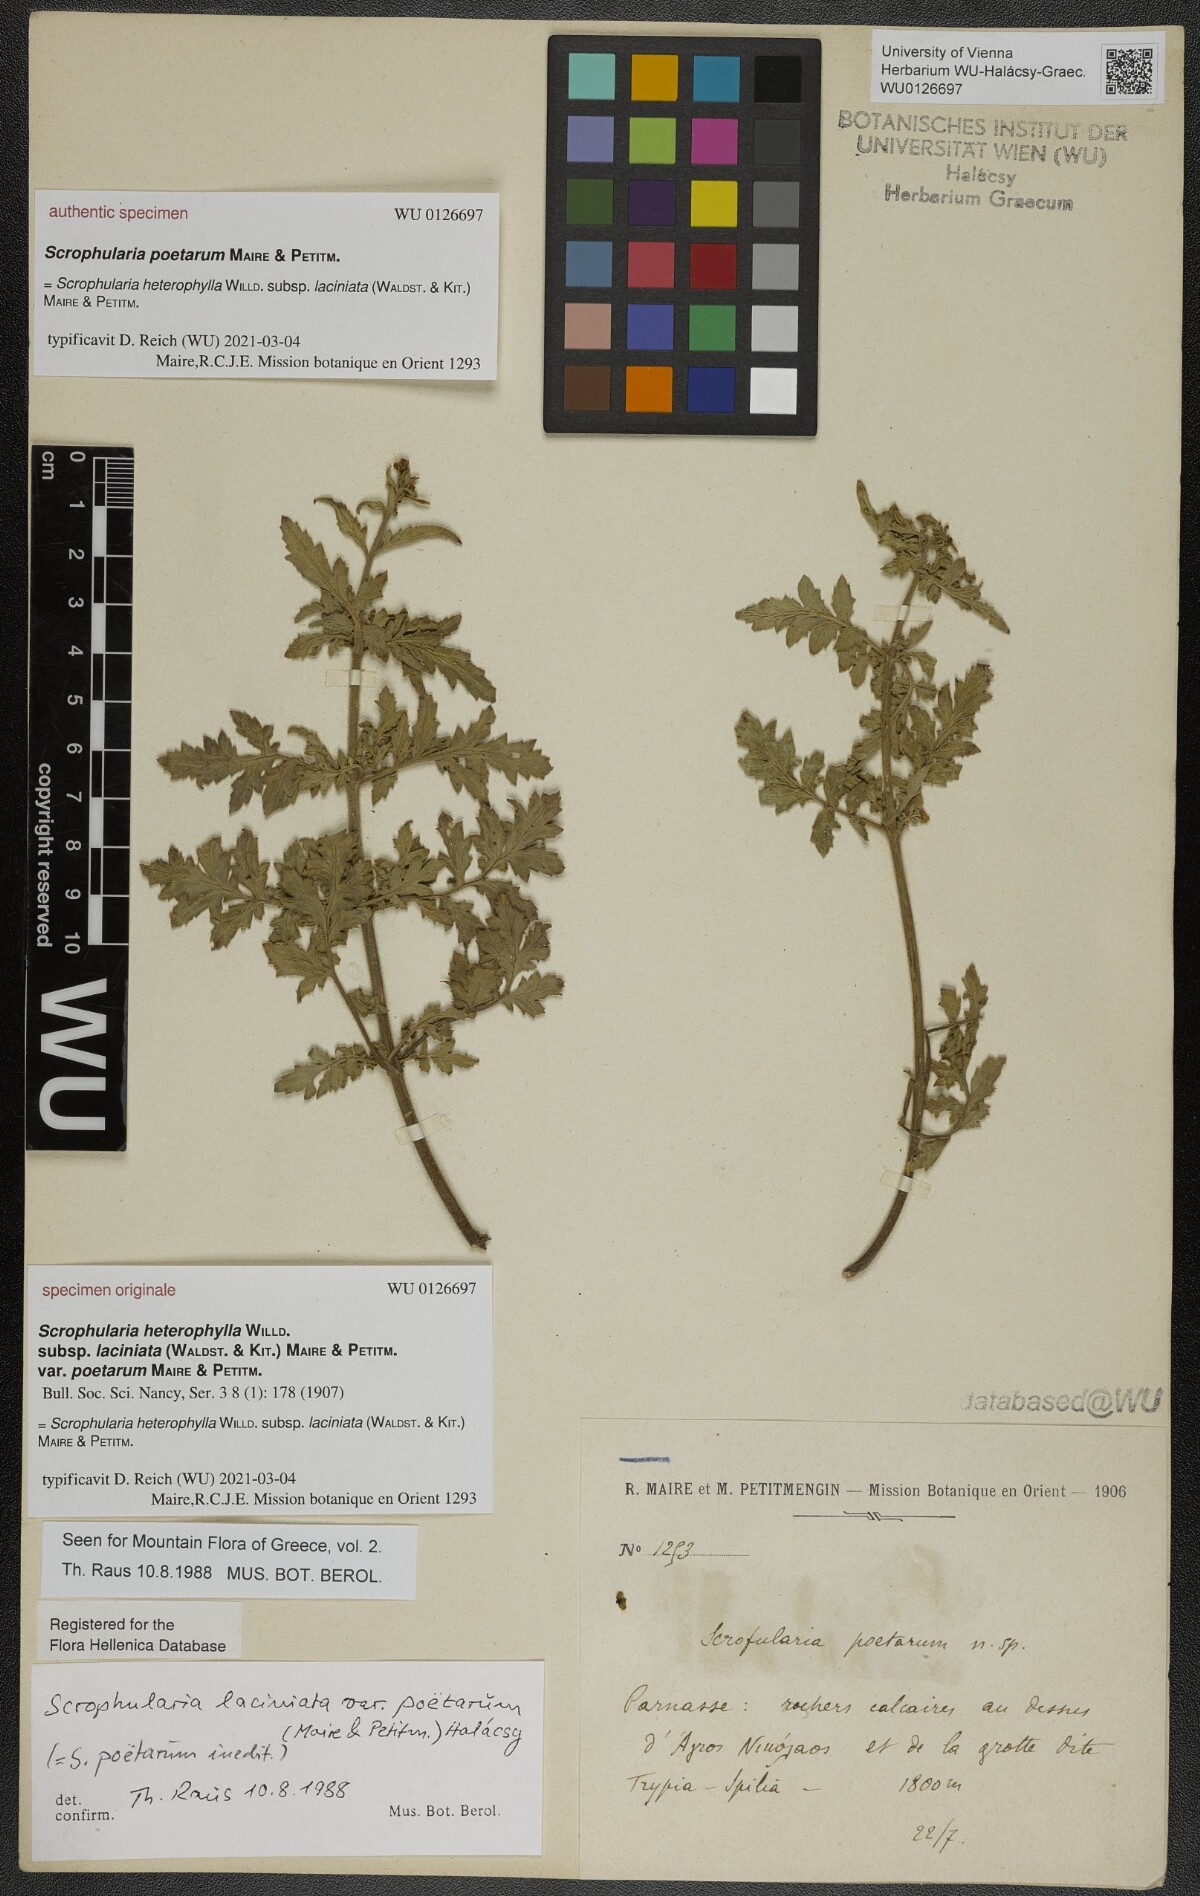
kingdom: Plantae
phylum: Tracheophyta
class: Magnoliopsida
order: Lamiales
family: Scrophulariaceae
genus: Scrophularia
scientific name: Scrophularia heterophylla
